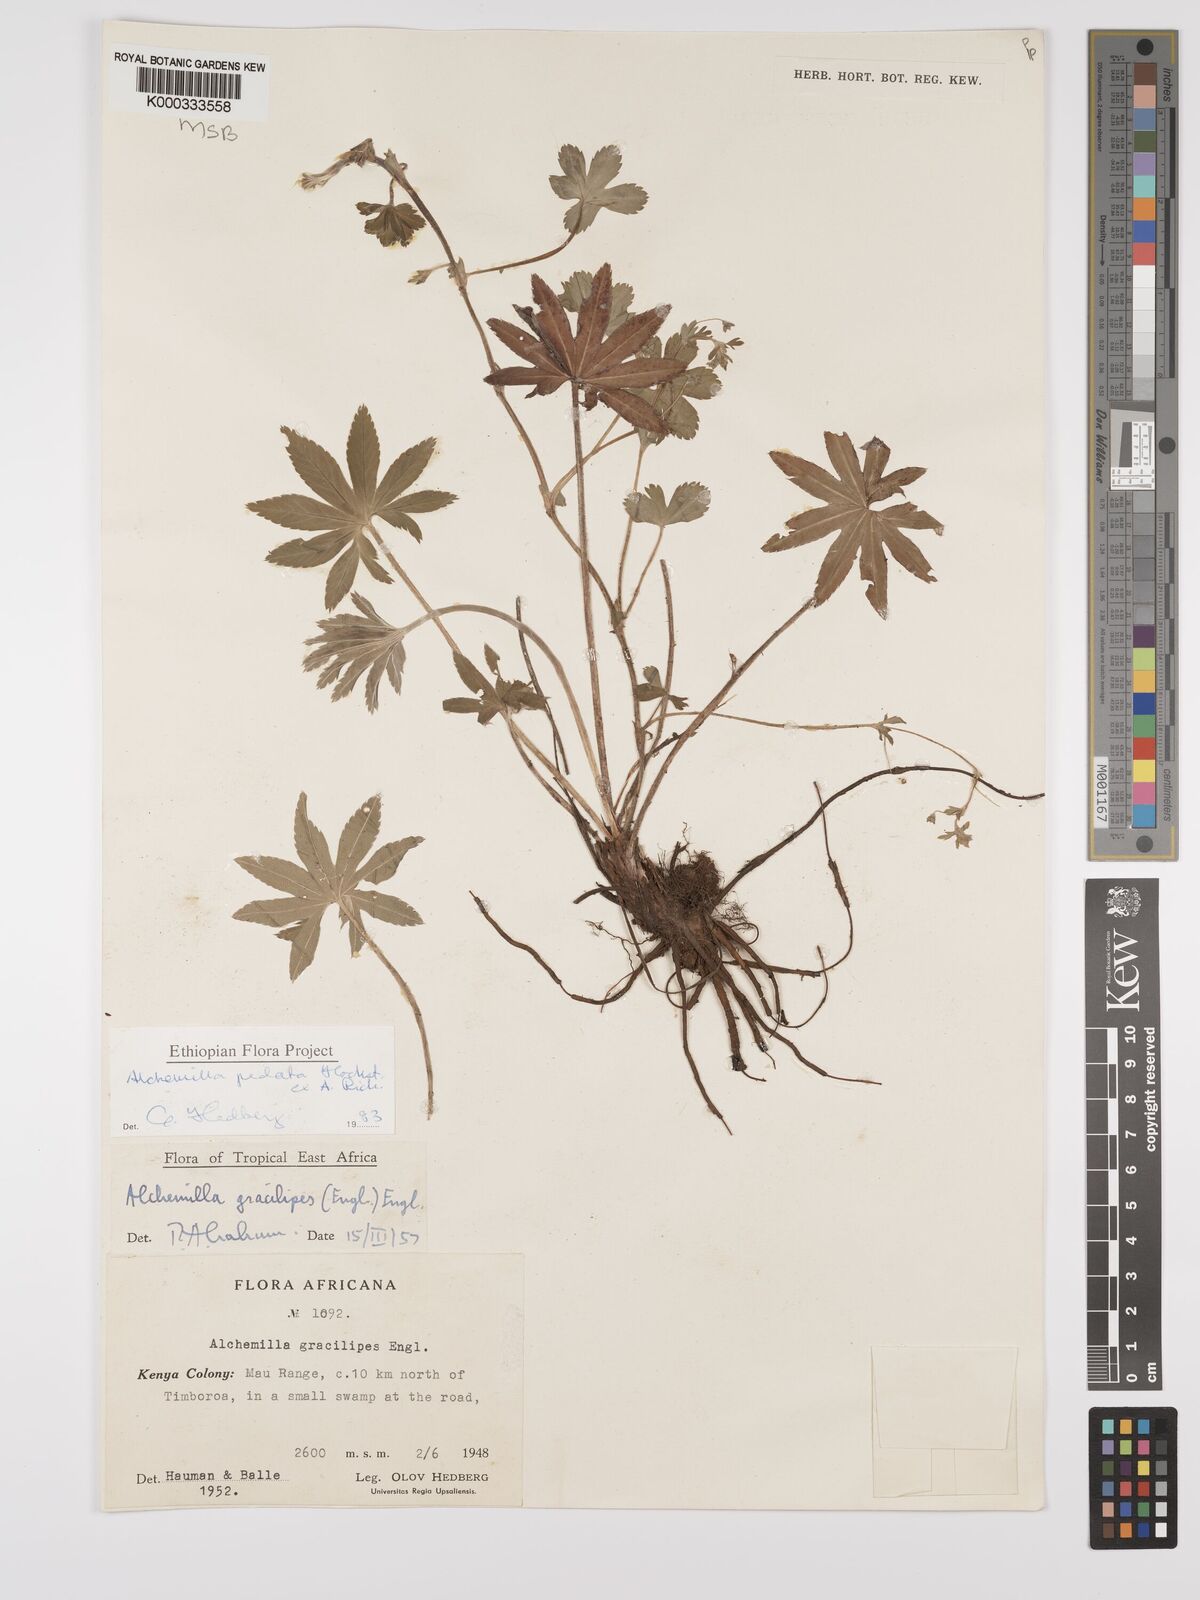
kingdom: Plantae
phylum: Tracheophyta
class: Magnoliopsida
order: Rosales
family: Rosaceae
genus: Alchemilla
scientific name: Alchemilla pedata
